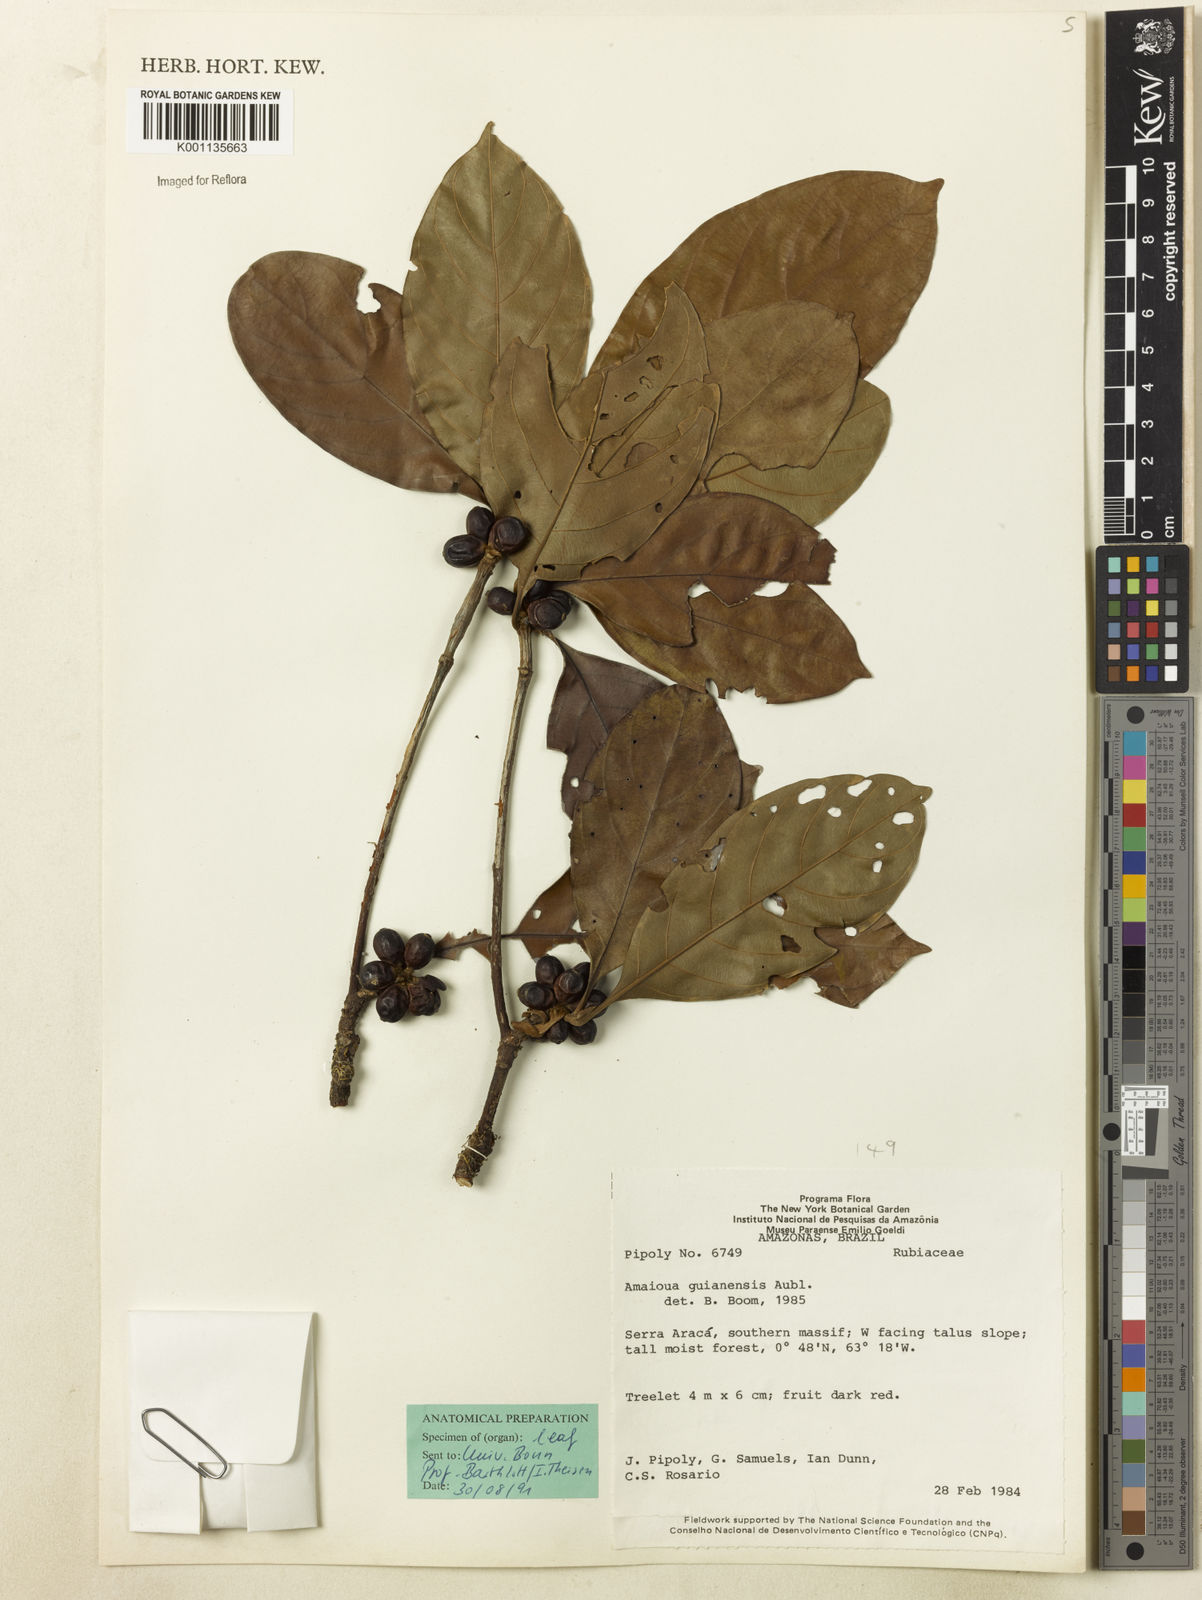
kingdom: Plantae
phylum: Tracheophyta
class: Magnoliopsida
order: Gentianales
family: Rubiaceae
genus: Amaioua
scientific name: Amaioua guianensis
